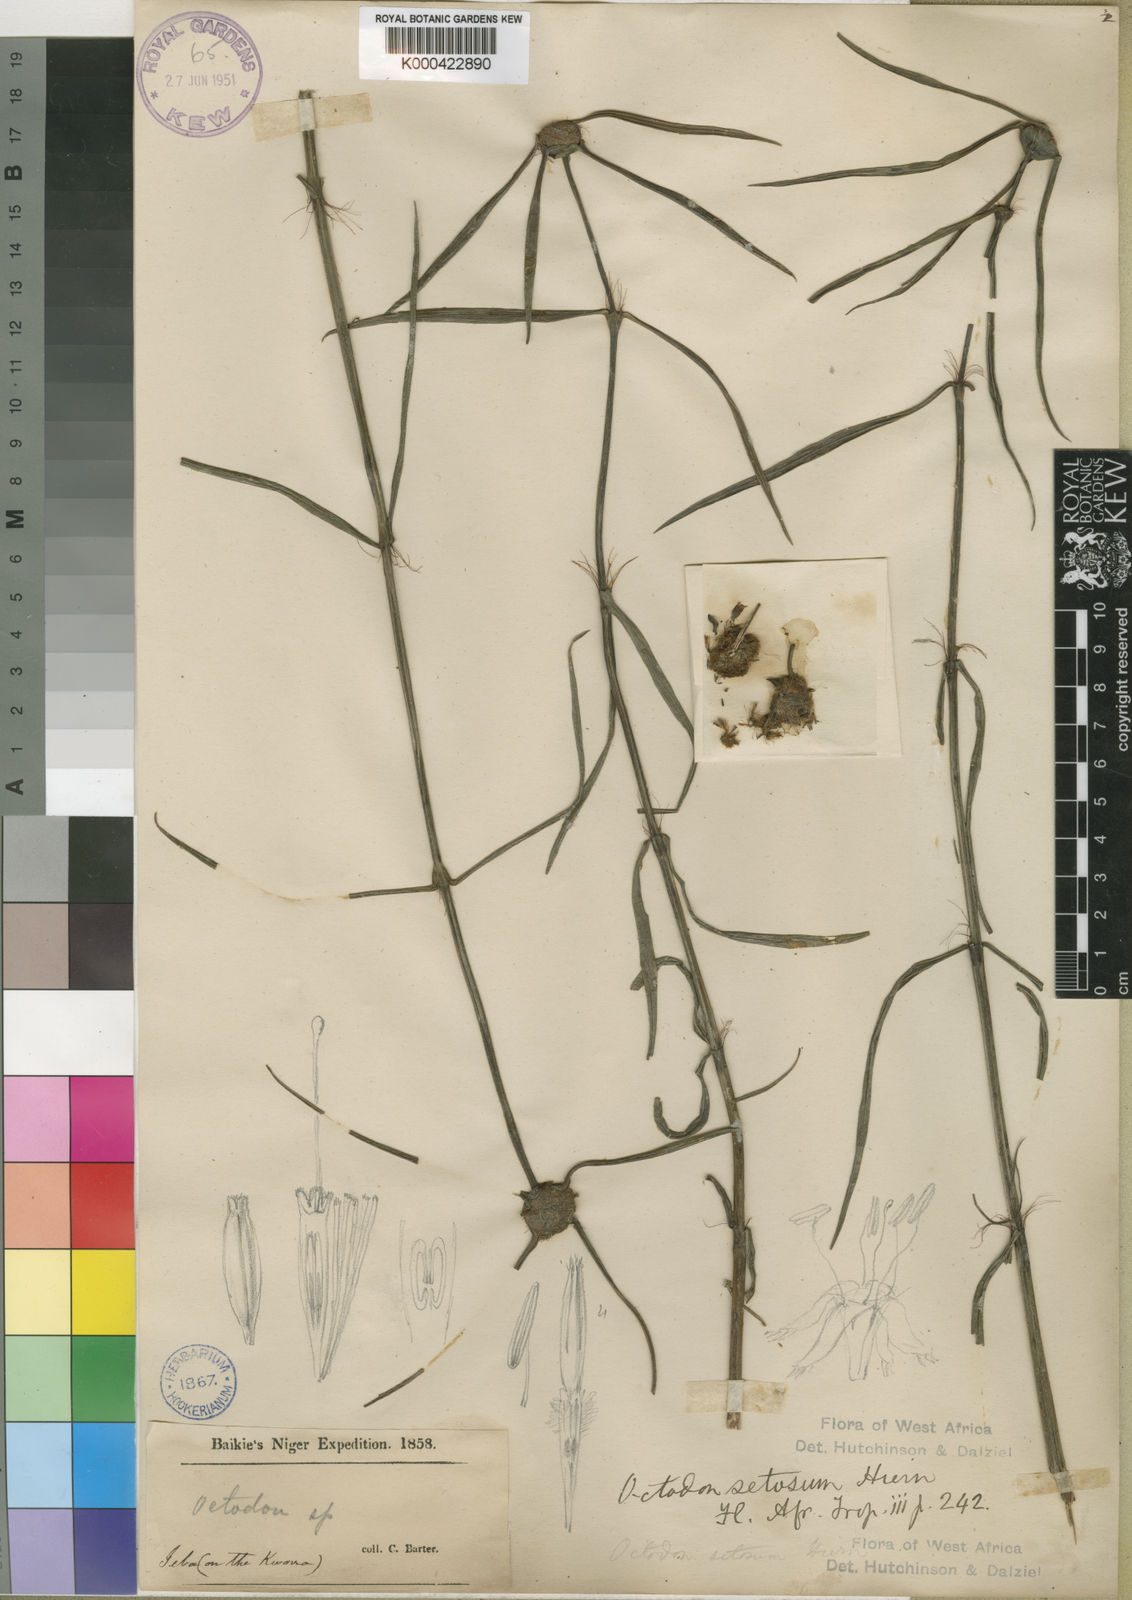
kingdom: Plantae
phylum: Tracheophyta
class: Magnoliopsida
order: Gentianales
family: Rubiaceae
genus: Spermacoce
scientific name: Spermacoce octodon
